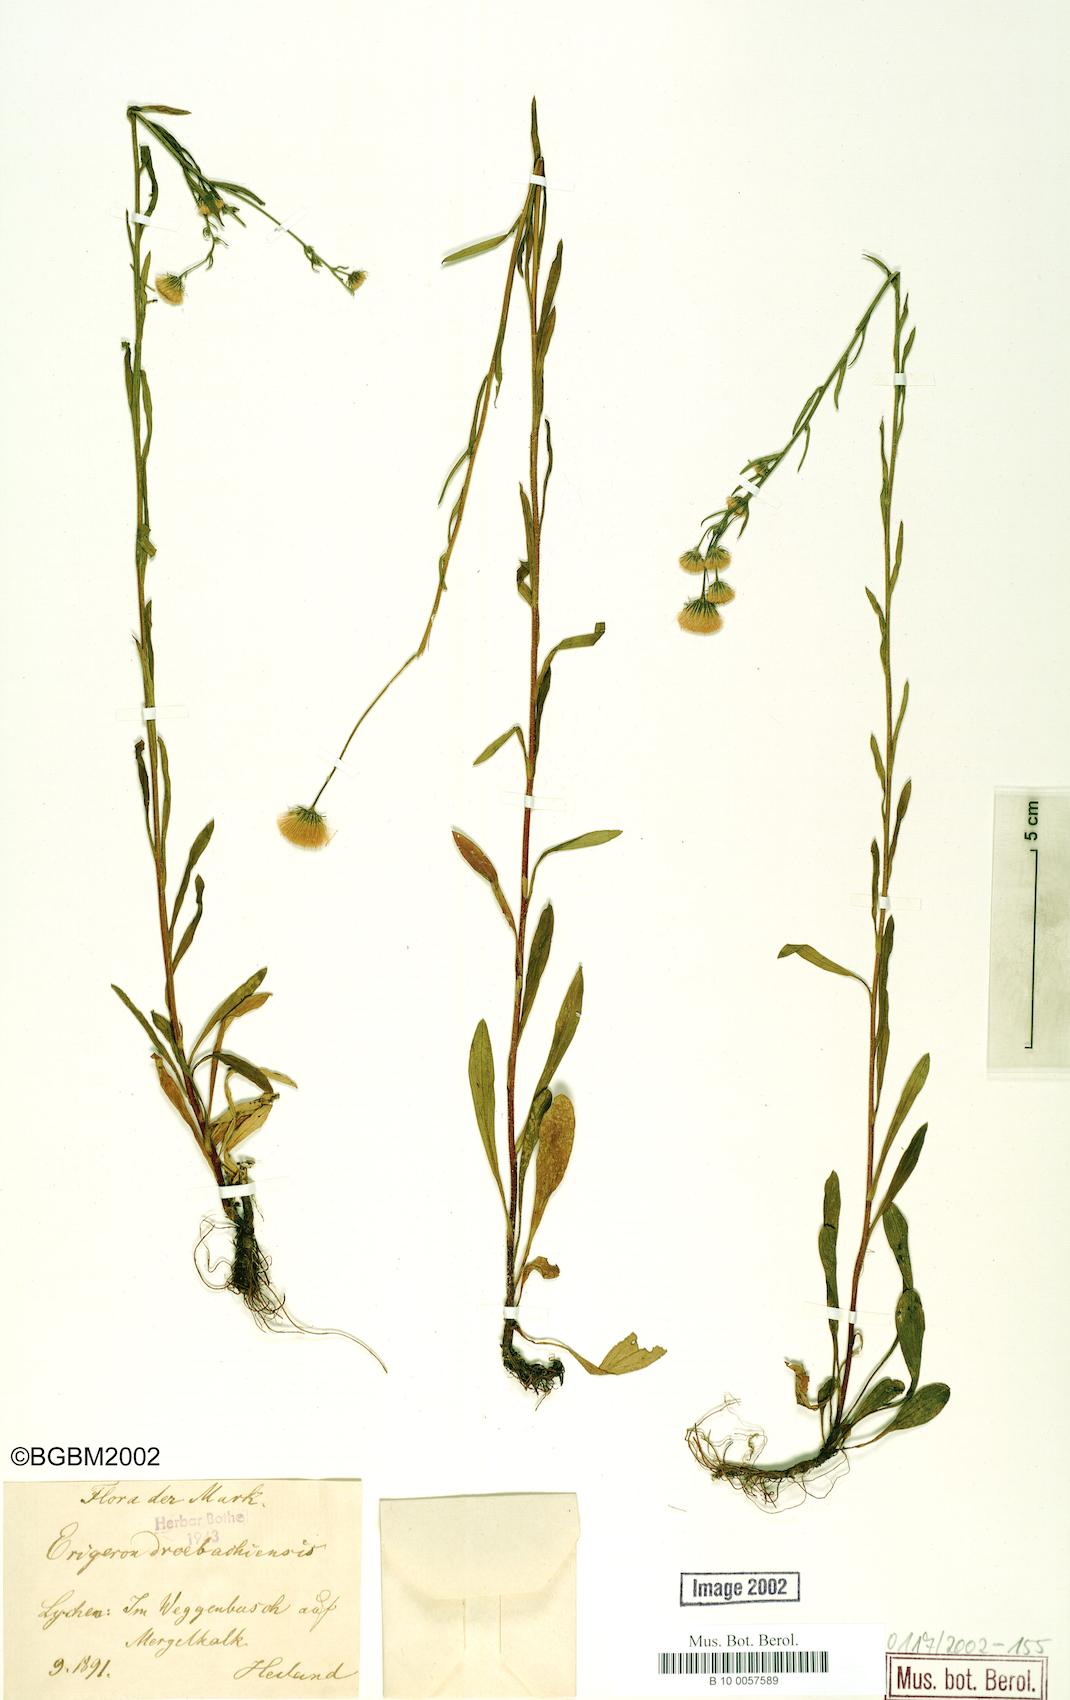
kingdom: Plantae
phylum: Tracheophyta
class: Magnoliopsida
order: Asterales
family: Asteraceae
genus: Erigeron
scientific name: Erigeron acris
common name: Blue fleabane
